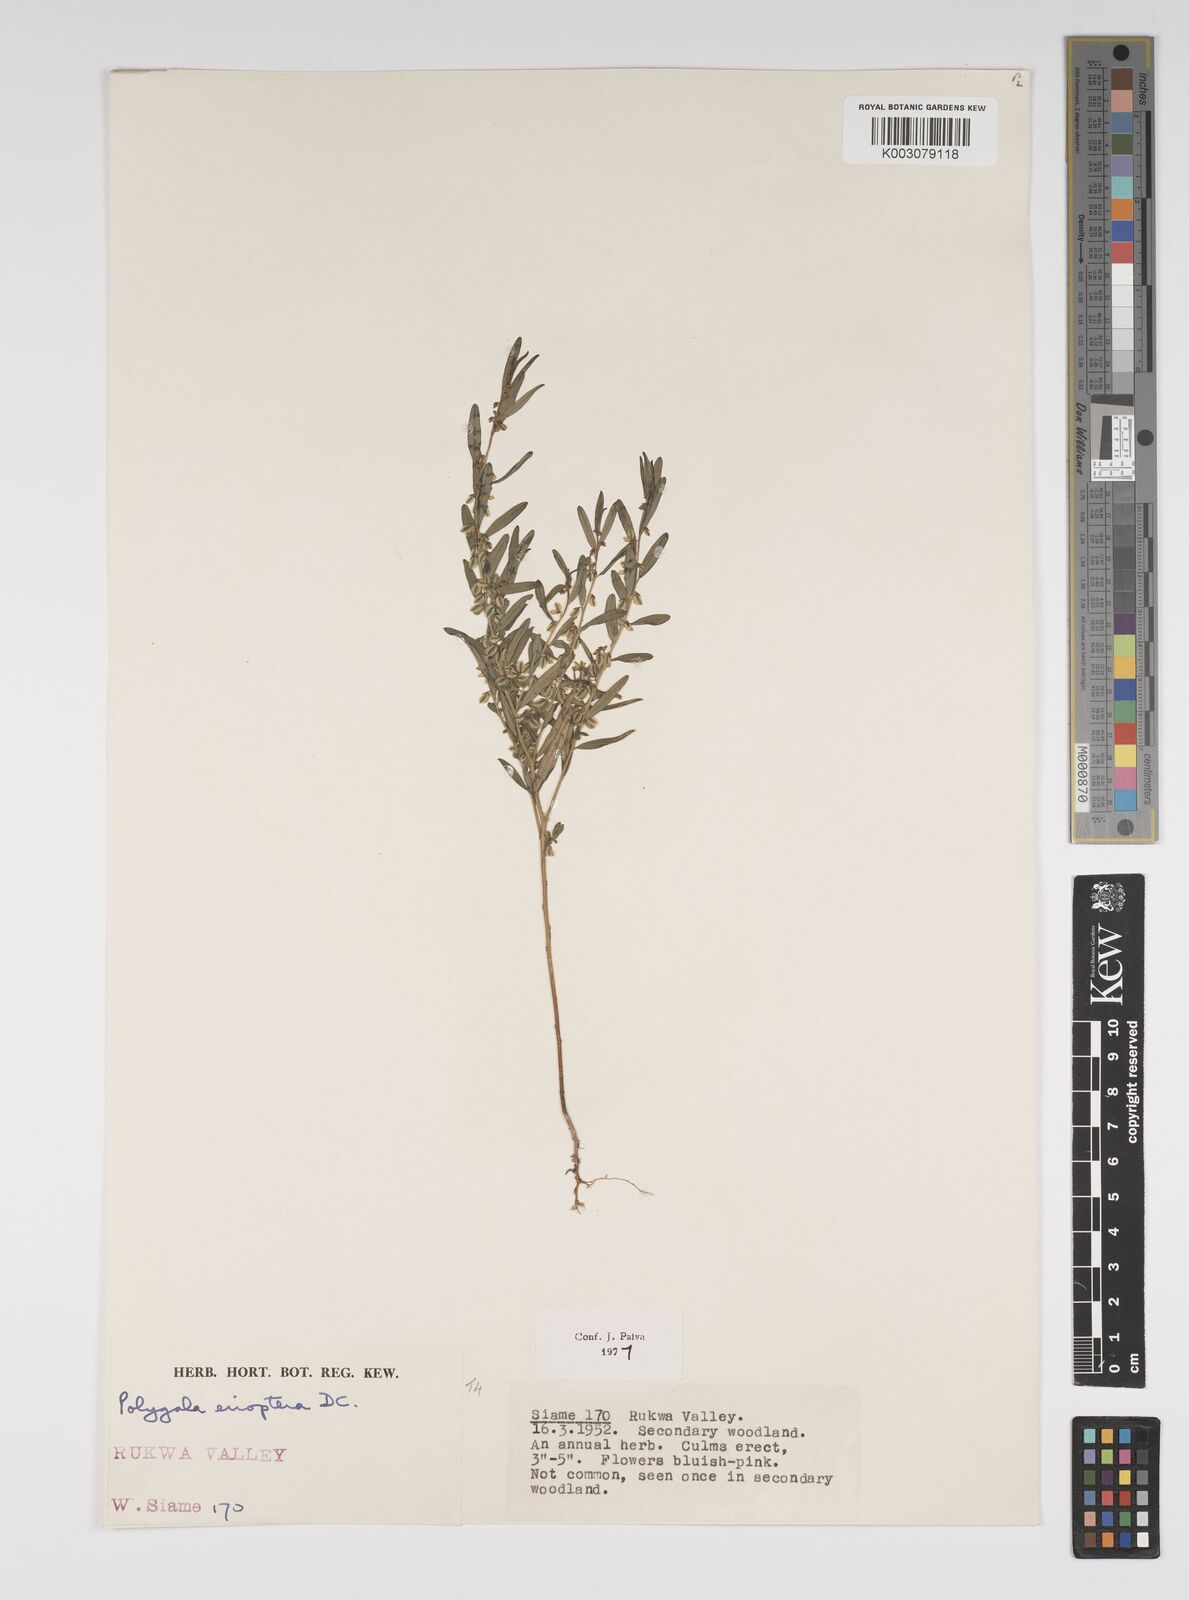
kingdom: Plantae
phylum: Tracheophyta
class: Magnoliopsida
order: Fabales
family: Polygalaceae
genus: Polygala
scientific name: Polygala erioptera
